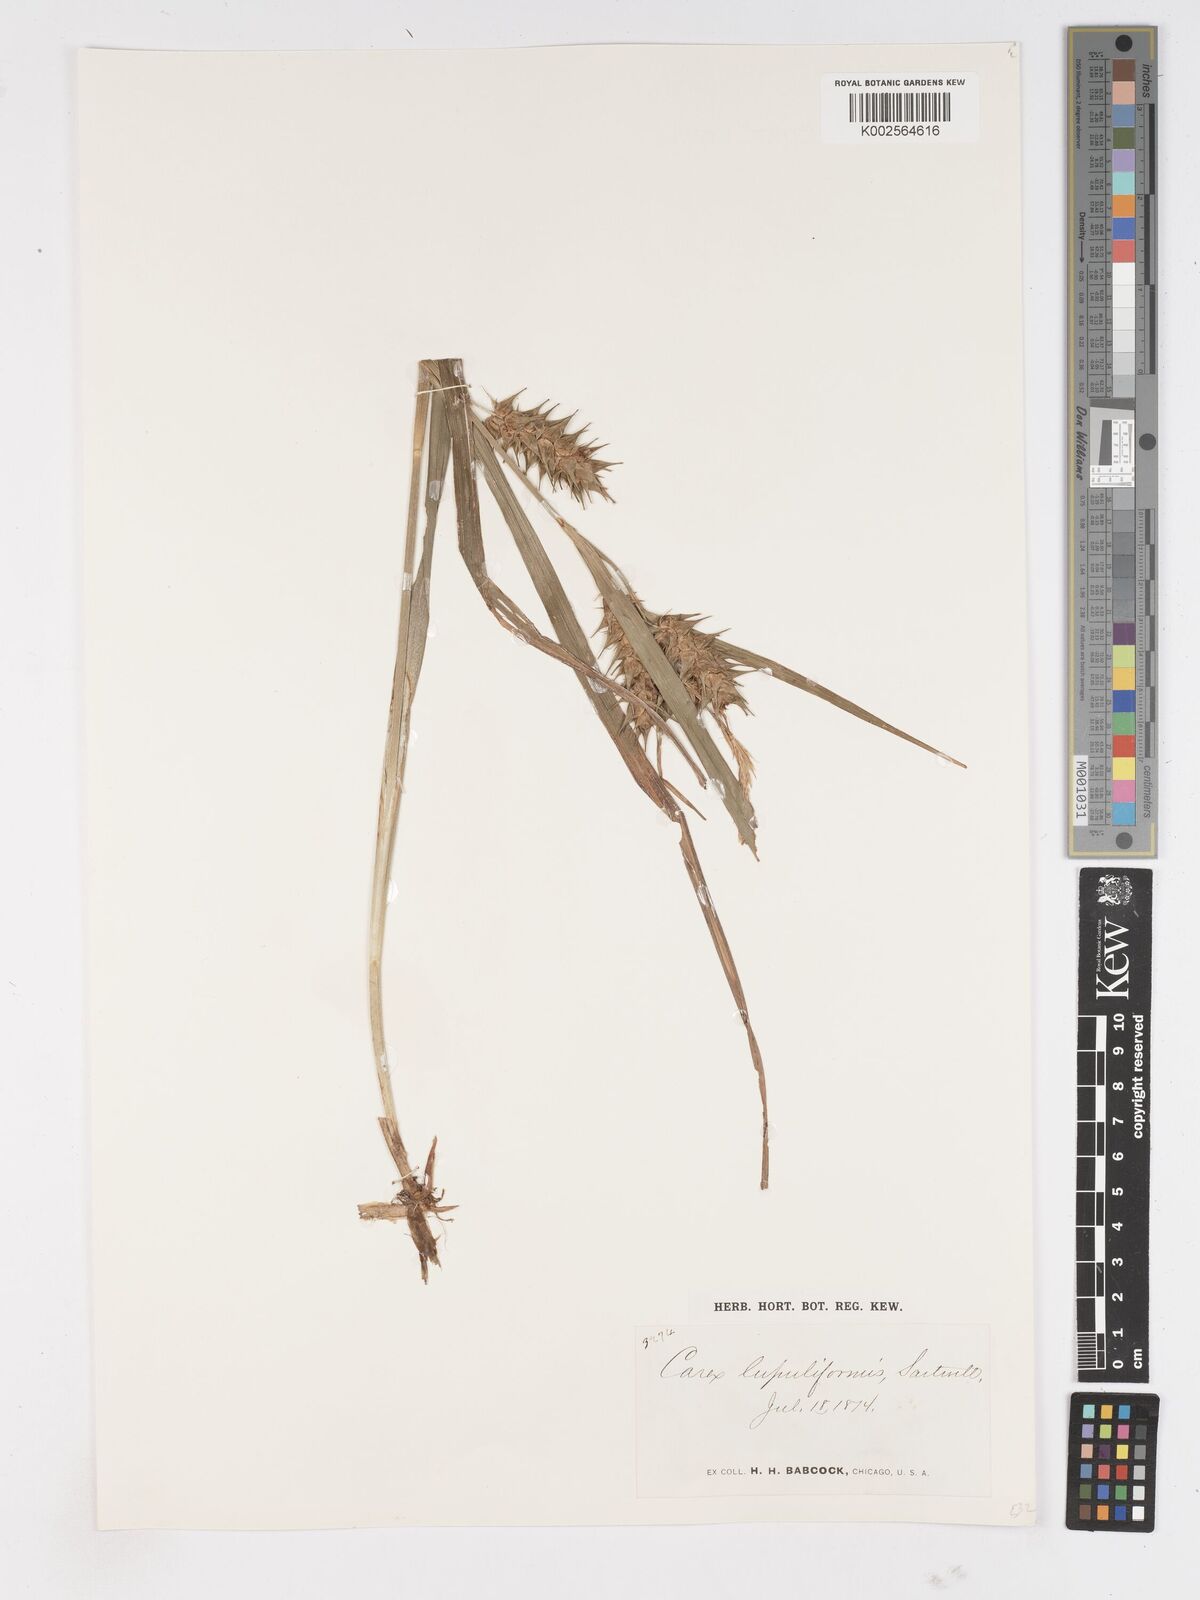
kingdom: Plantae
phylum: Tracheophyta
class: Liliopsida
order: Poales
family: Cyperaceae
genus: Carex
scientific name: Carex lupuliformis
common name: False hop sedge
